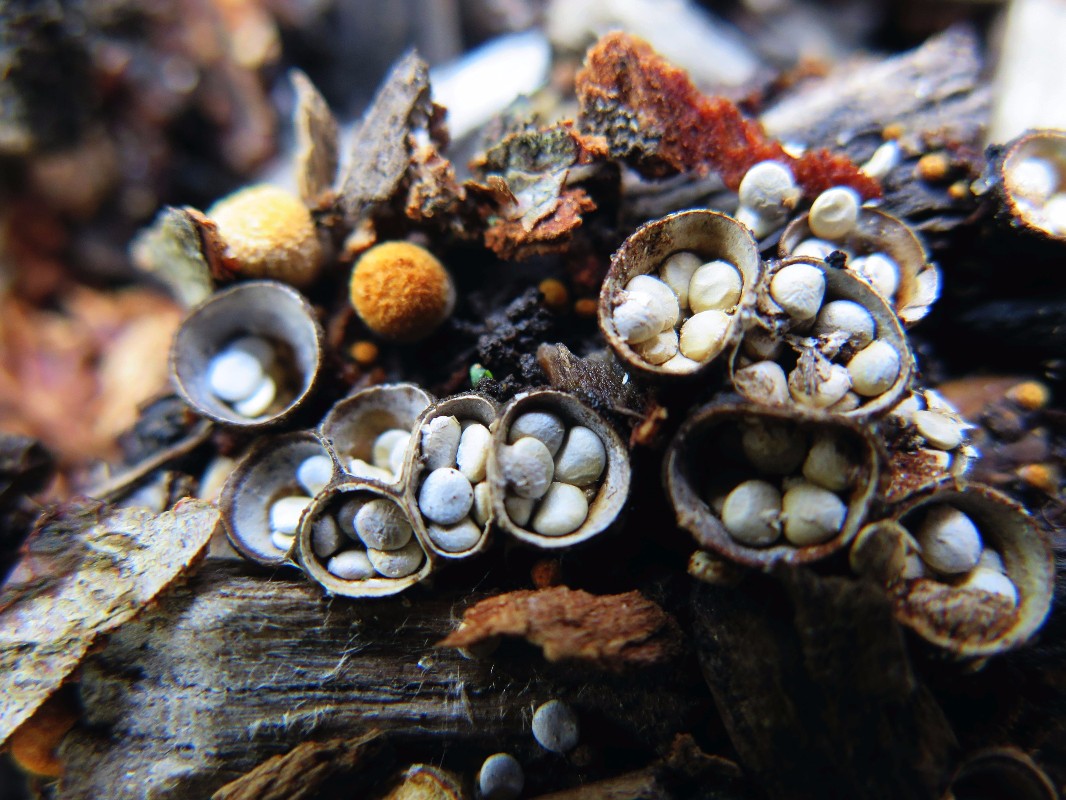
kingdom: Fungi
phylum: Basidiomycota
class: Agaricomycetes
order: Agaricales
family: Nidulariaceae
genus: Crucibulum
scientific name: Crucibulum crucibuliforme
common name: krukkesvamp
